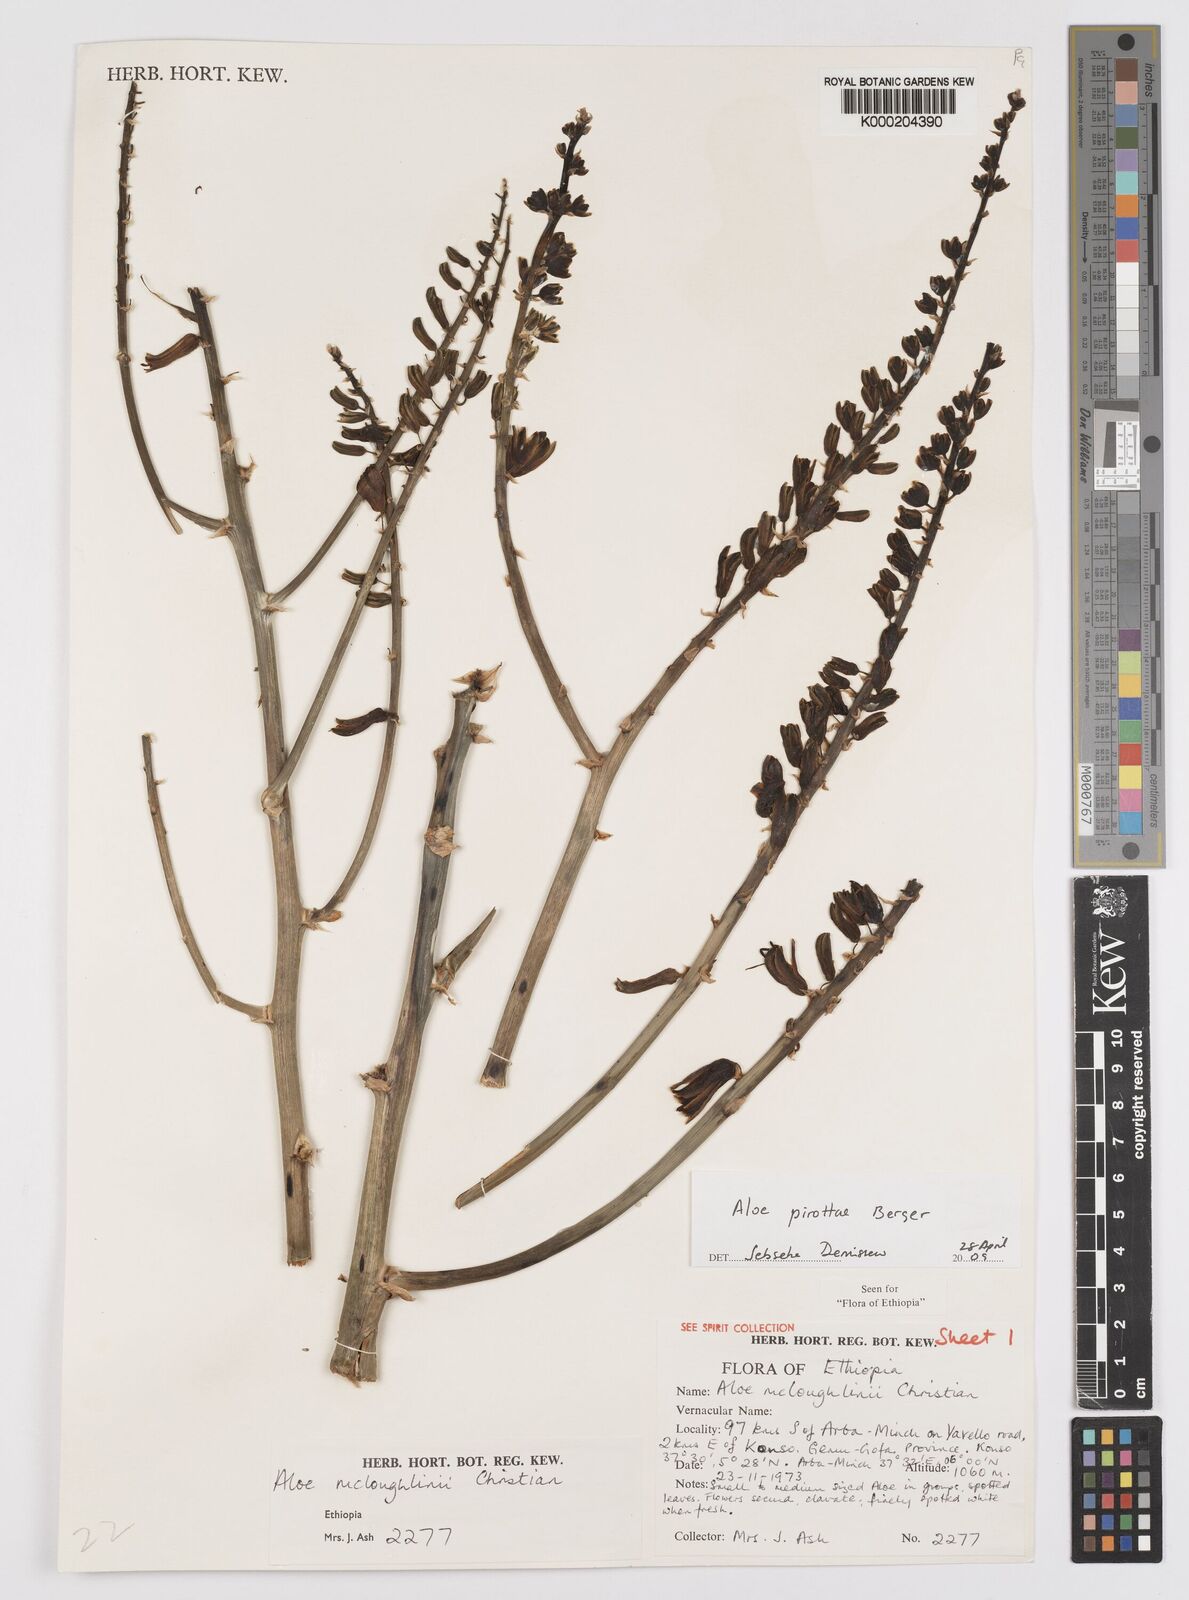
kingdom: Plantae
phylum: Tracheophyta
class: Liliopsida
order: Asparagales
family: Asphodelaceae
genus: Aloe
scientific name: Aloe pirottae
